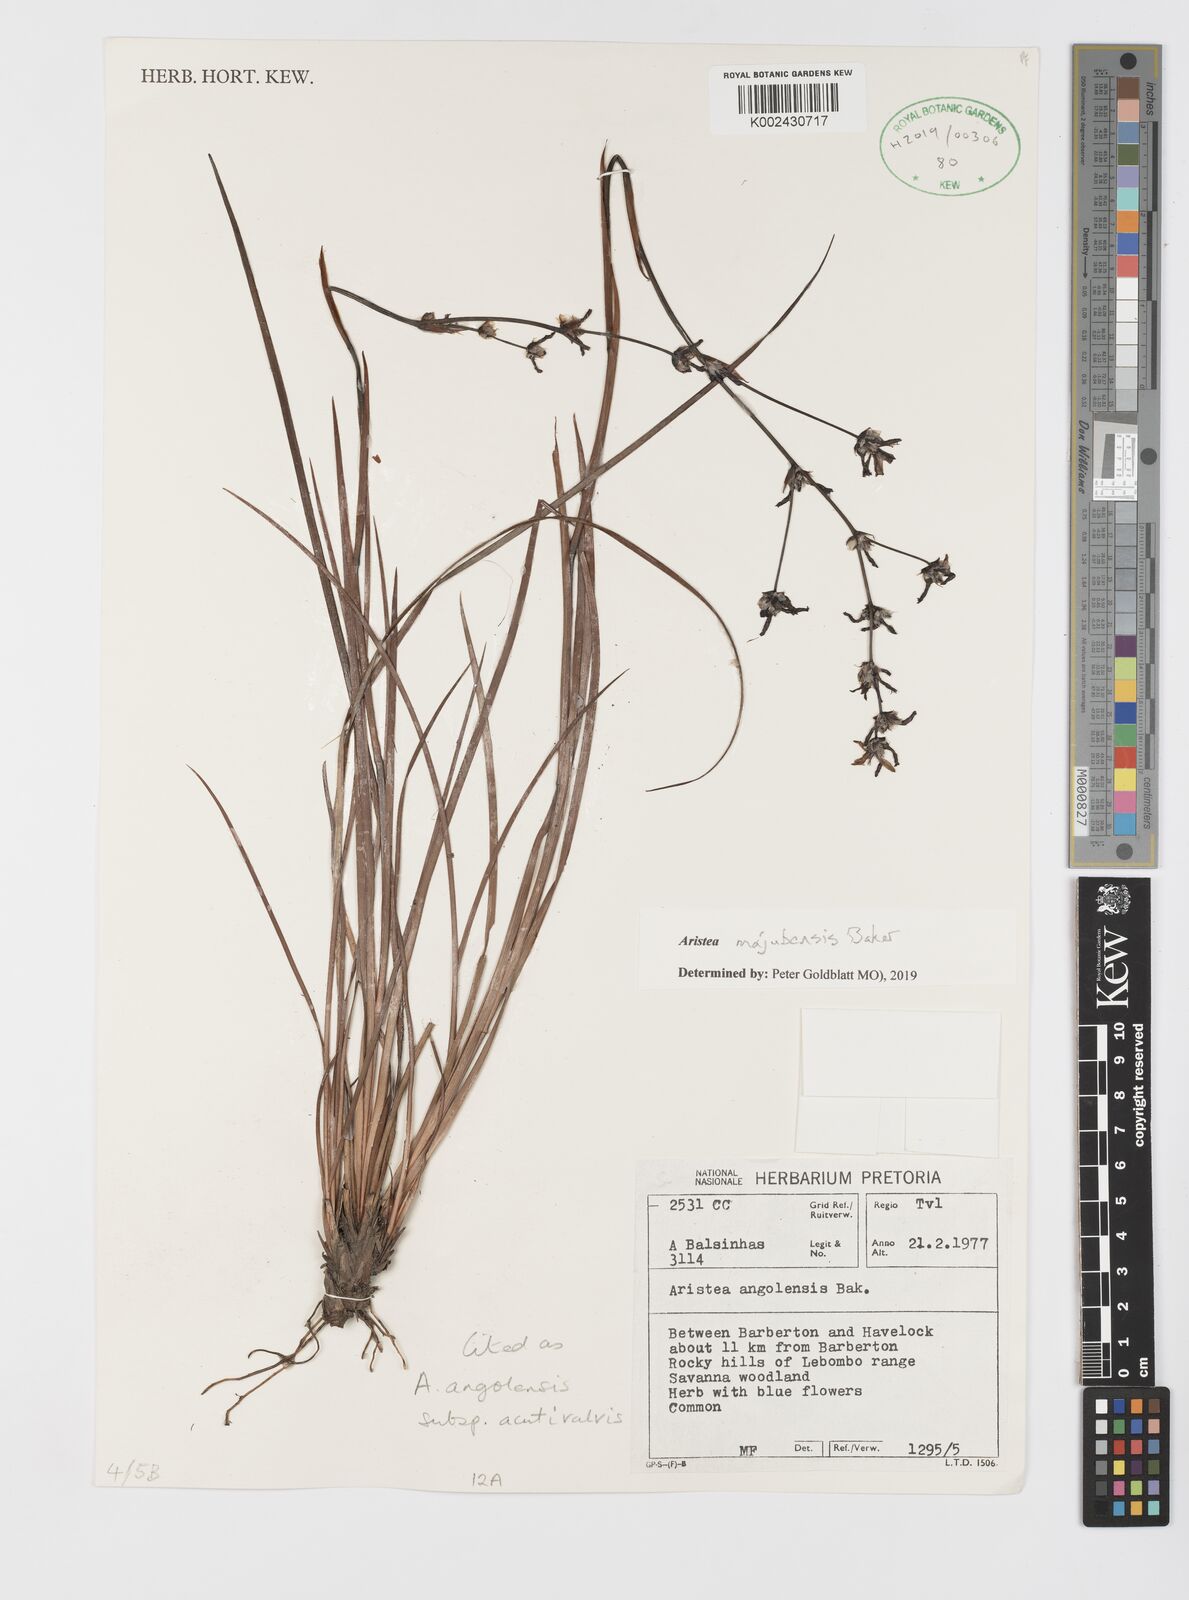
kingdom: Plantae
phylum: Tracheophyta
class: Liliopsida
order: Asparagales
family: Iridaceae
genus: Aristea
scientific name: Aristea majubensis
